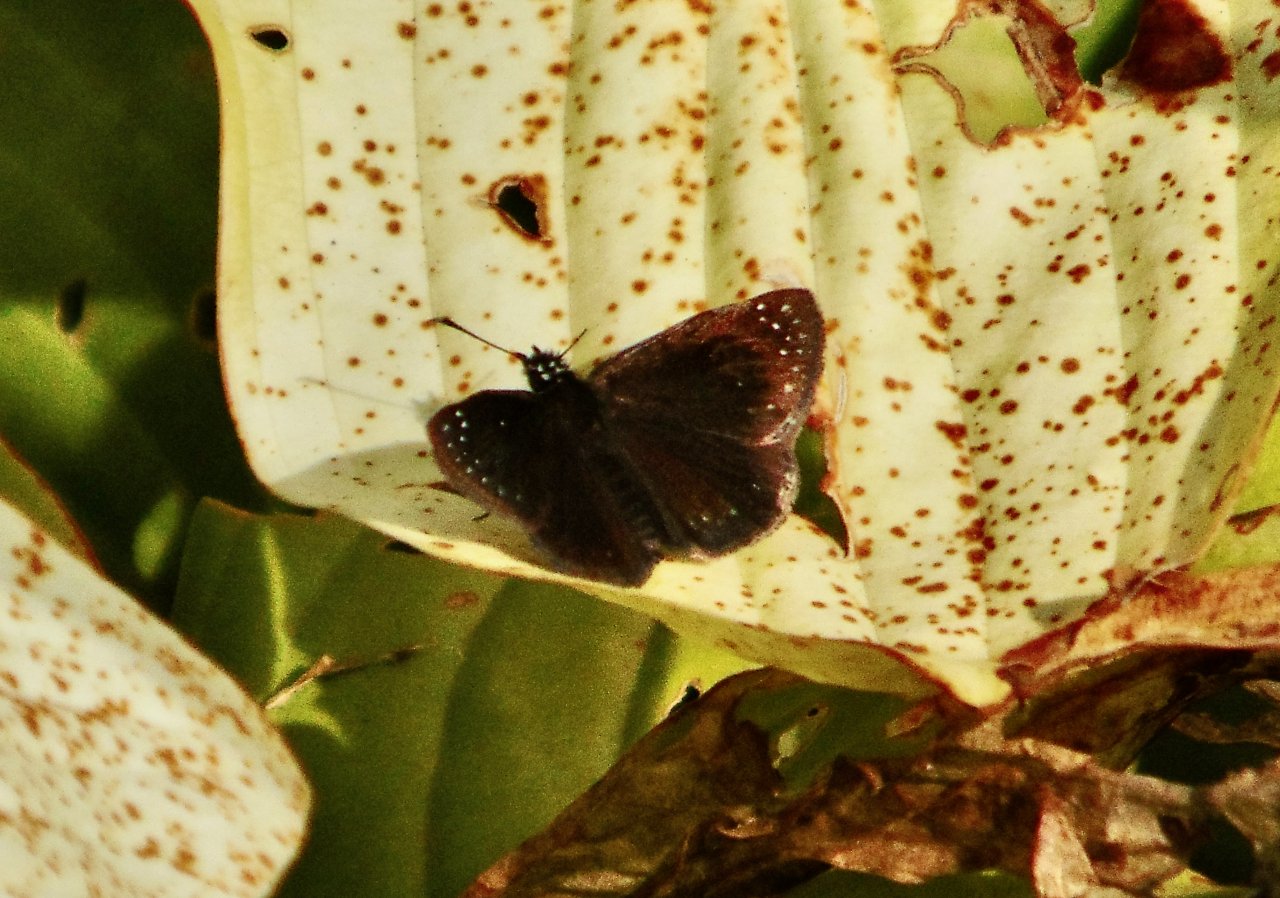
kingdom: Animalia
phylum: Arthropoda
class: Insecta
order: Lepidoptera
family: Hesperiidae
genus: Pholisora
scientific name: Pholisora catullus
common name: Common Sootywing
